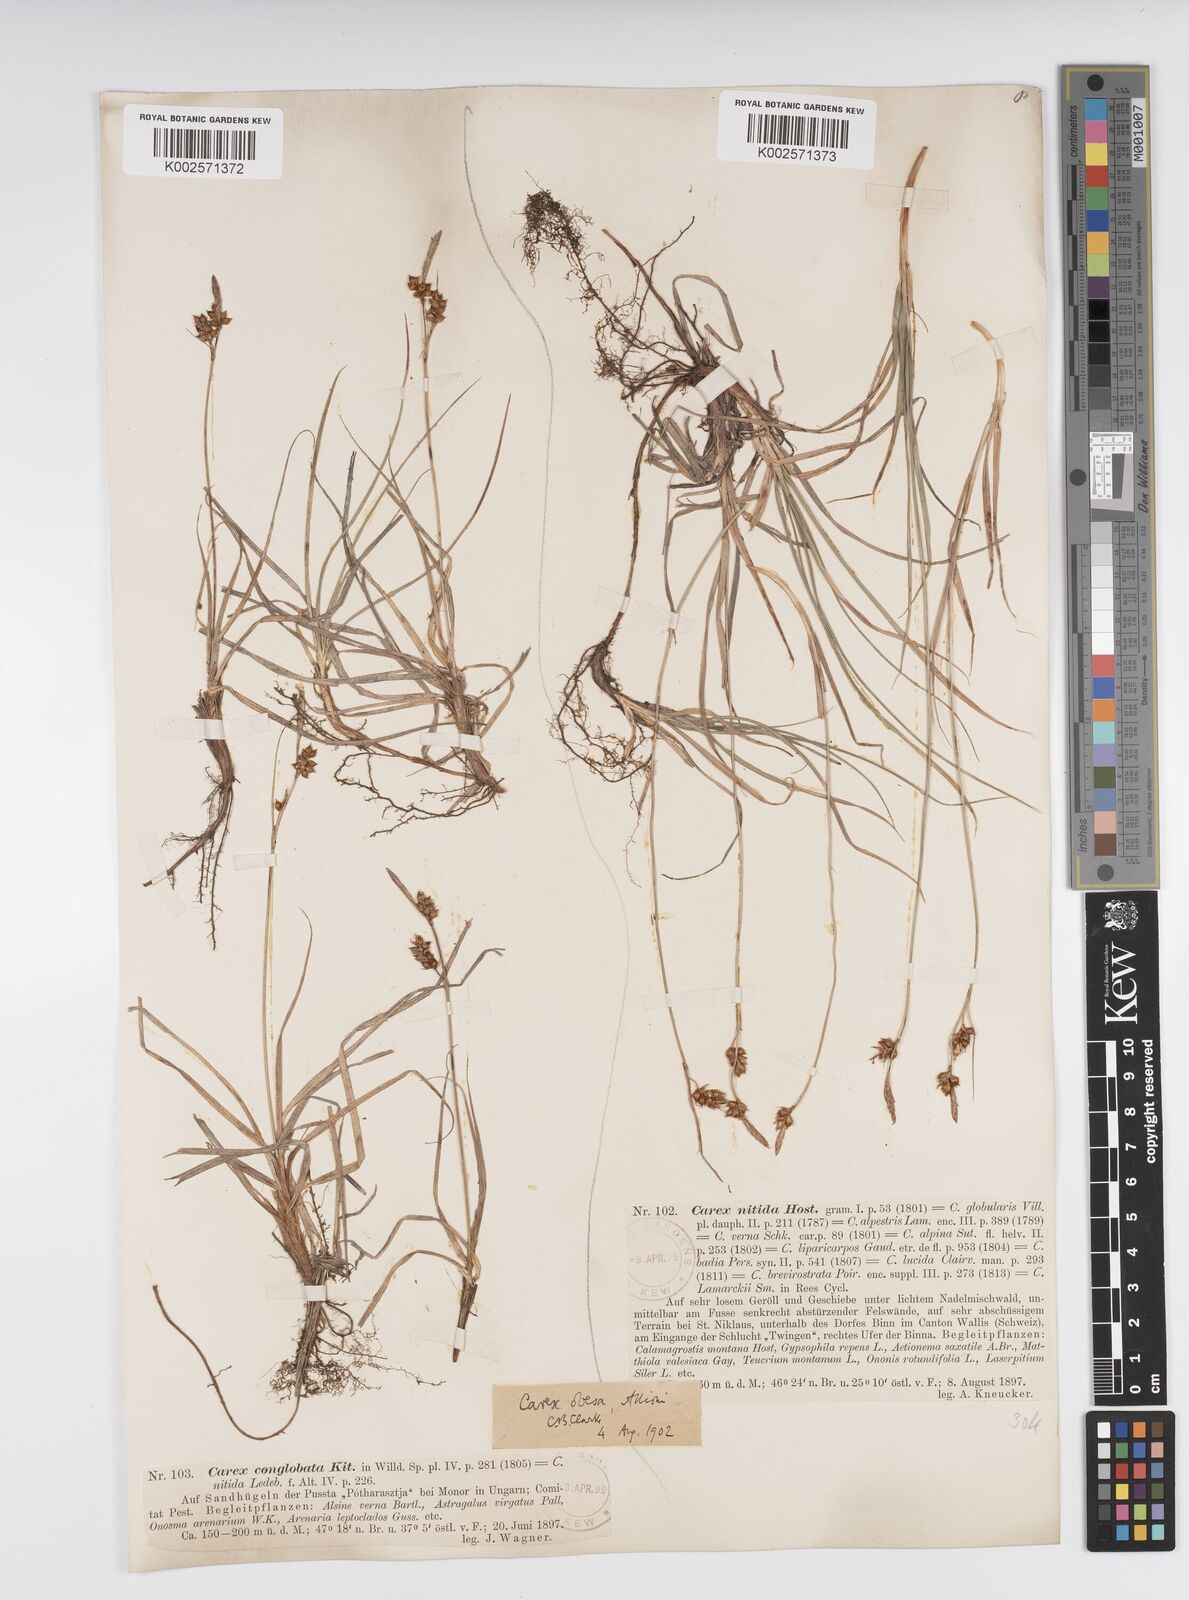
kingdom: Plantae
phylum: Tracheophyta
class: Liliopsida
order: Poales
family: Cyperaceae
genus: Carex
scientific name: Carex liparocarpos
